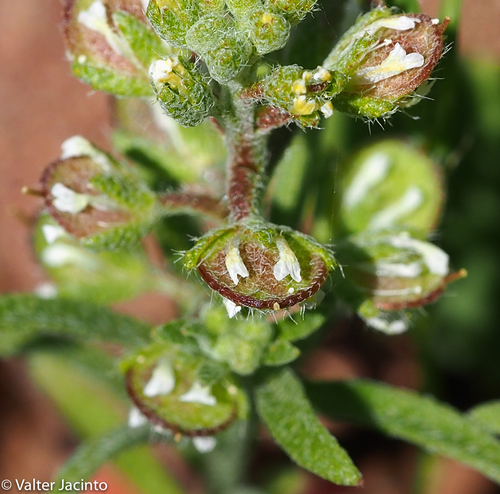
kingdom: Plantae
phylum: Tracheophyta
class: Magnoliopsida
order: Brassicales
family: Brassicaceae
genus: Alyssum
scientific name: Alyssum granatense
